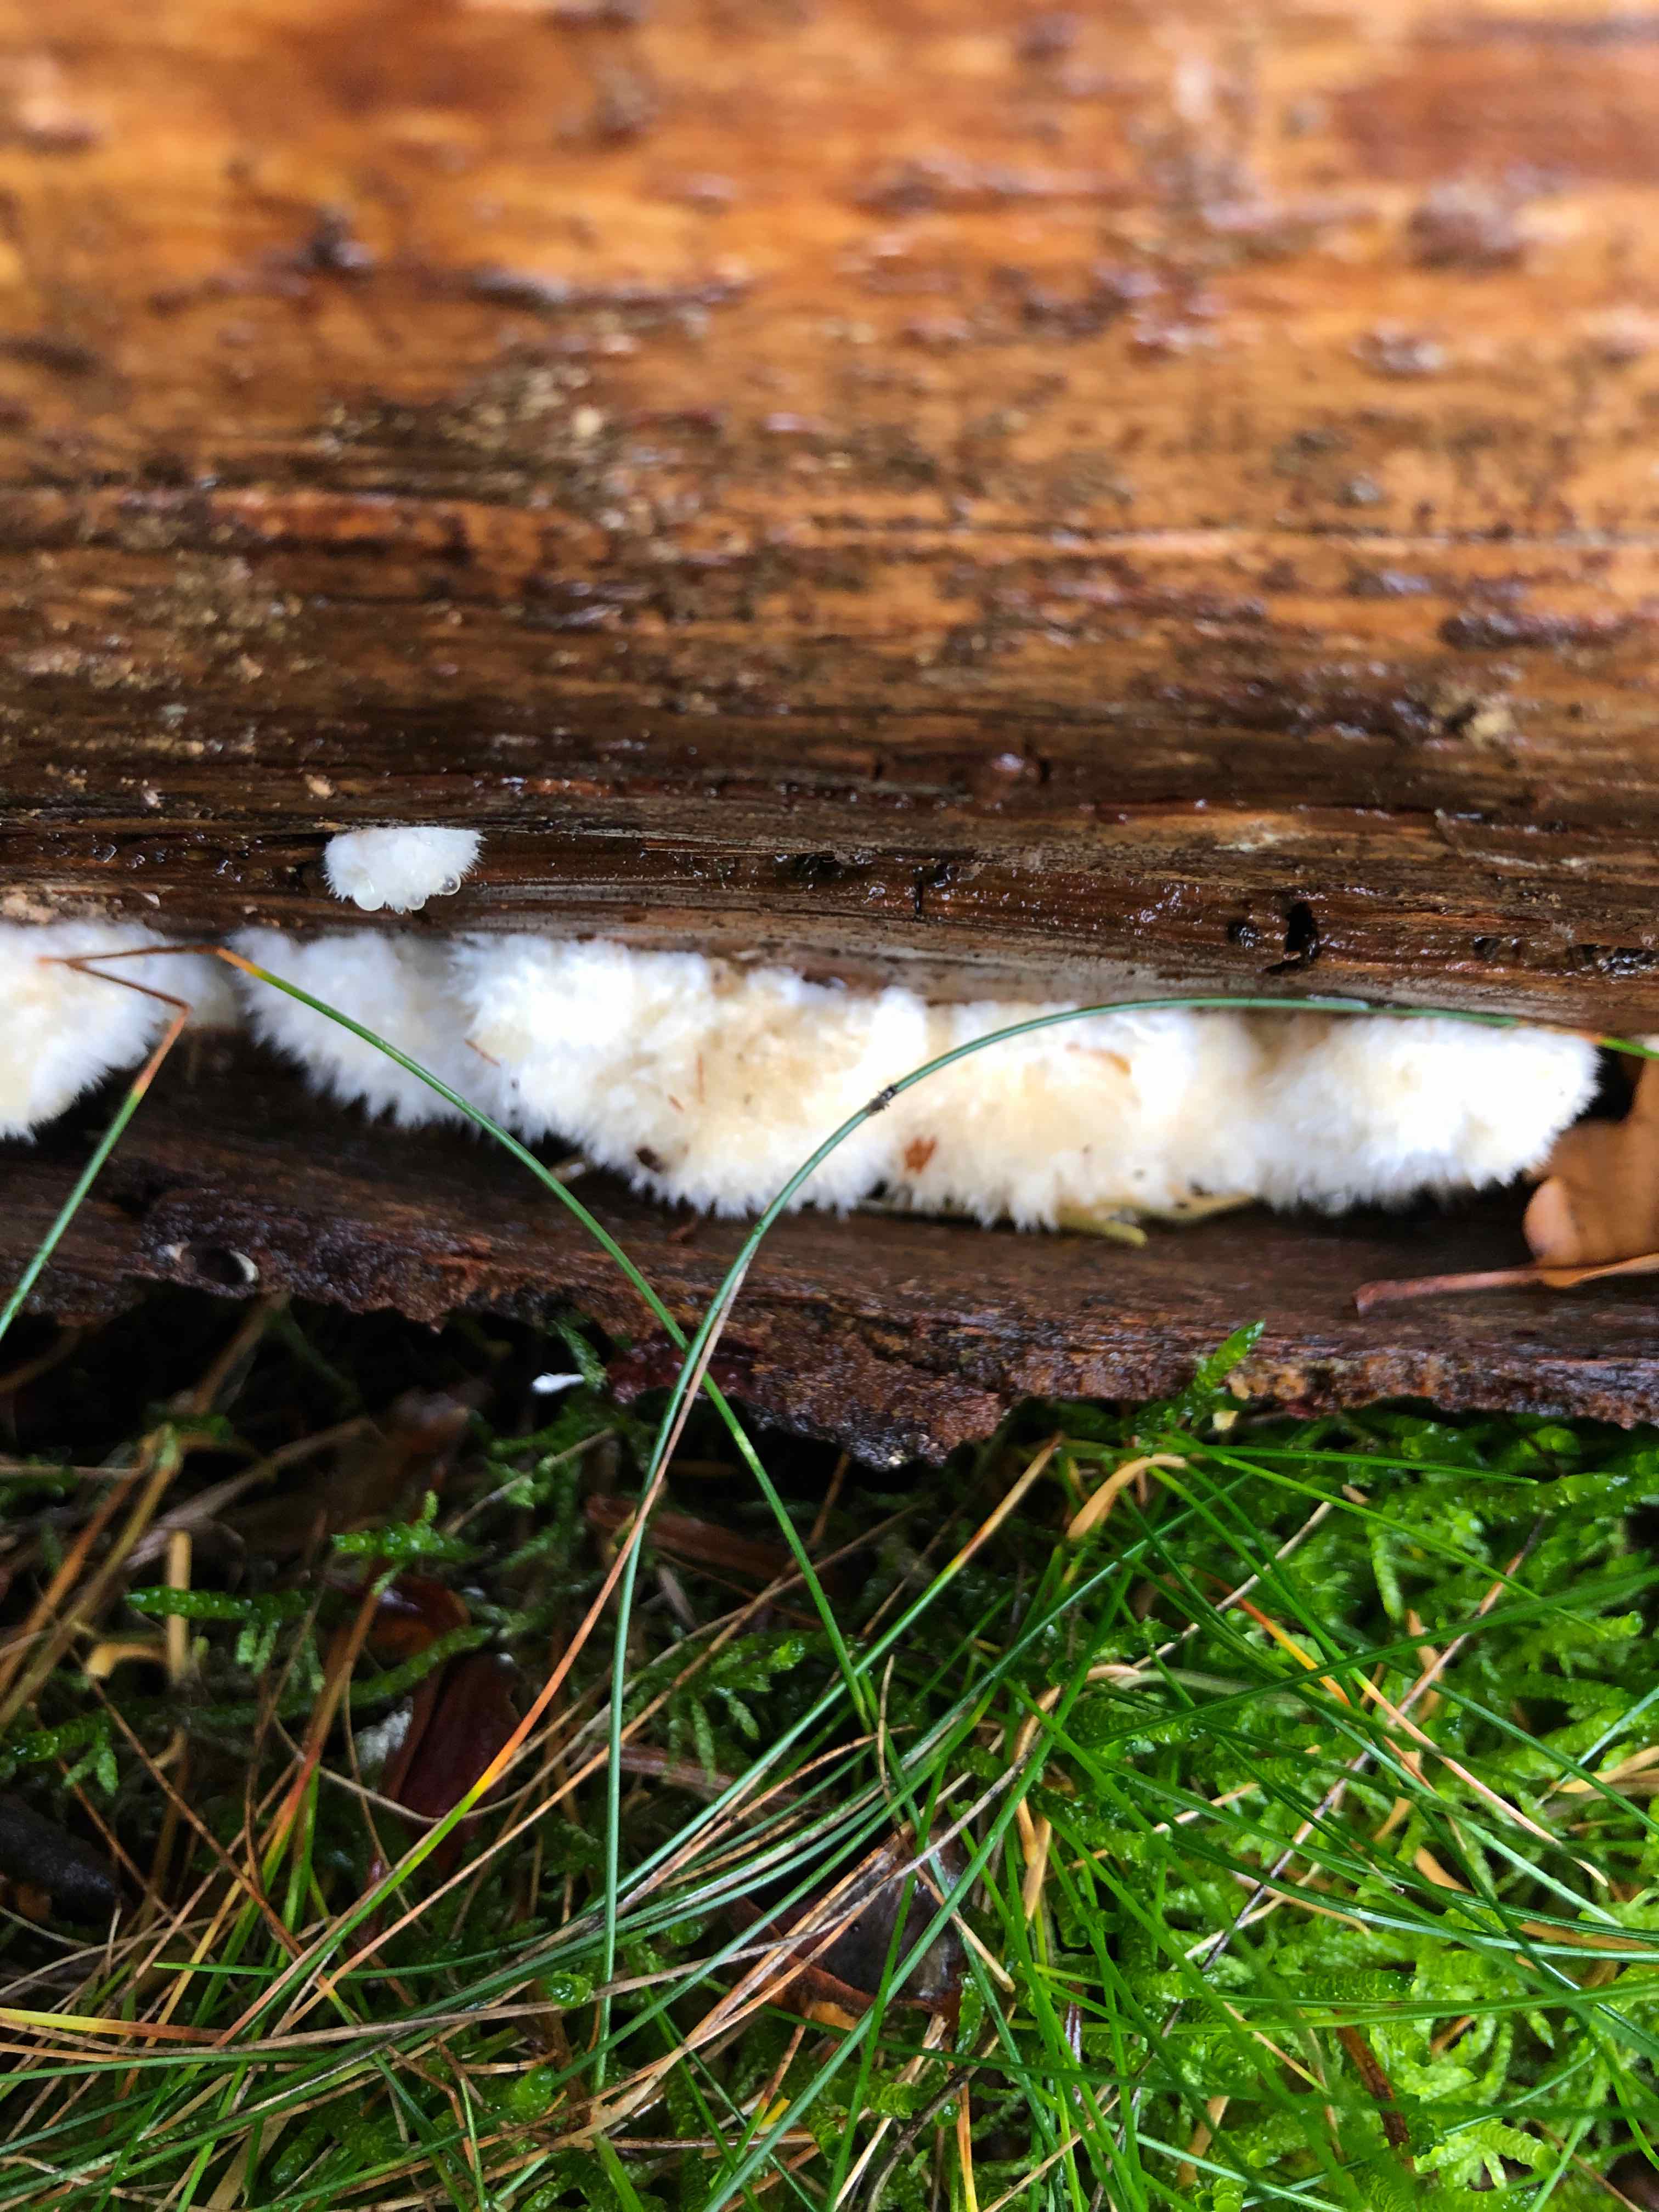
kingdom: Fungi
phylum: Basidiomycota
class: Agaricomycetes
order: Polyporales
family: Dacryobolaceae
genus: Postia
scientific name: Postia ptychogaster
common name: støvende kødporesvamp
